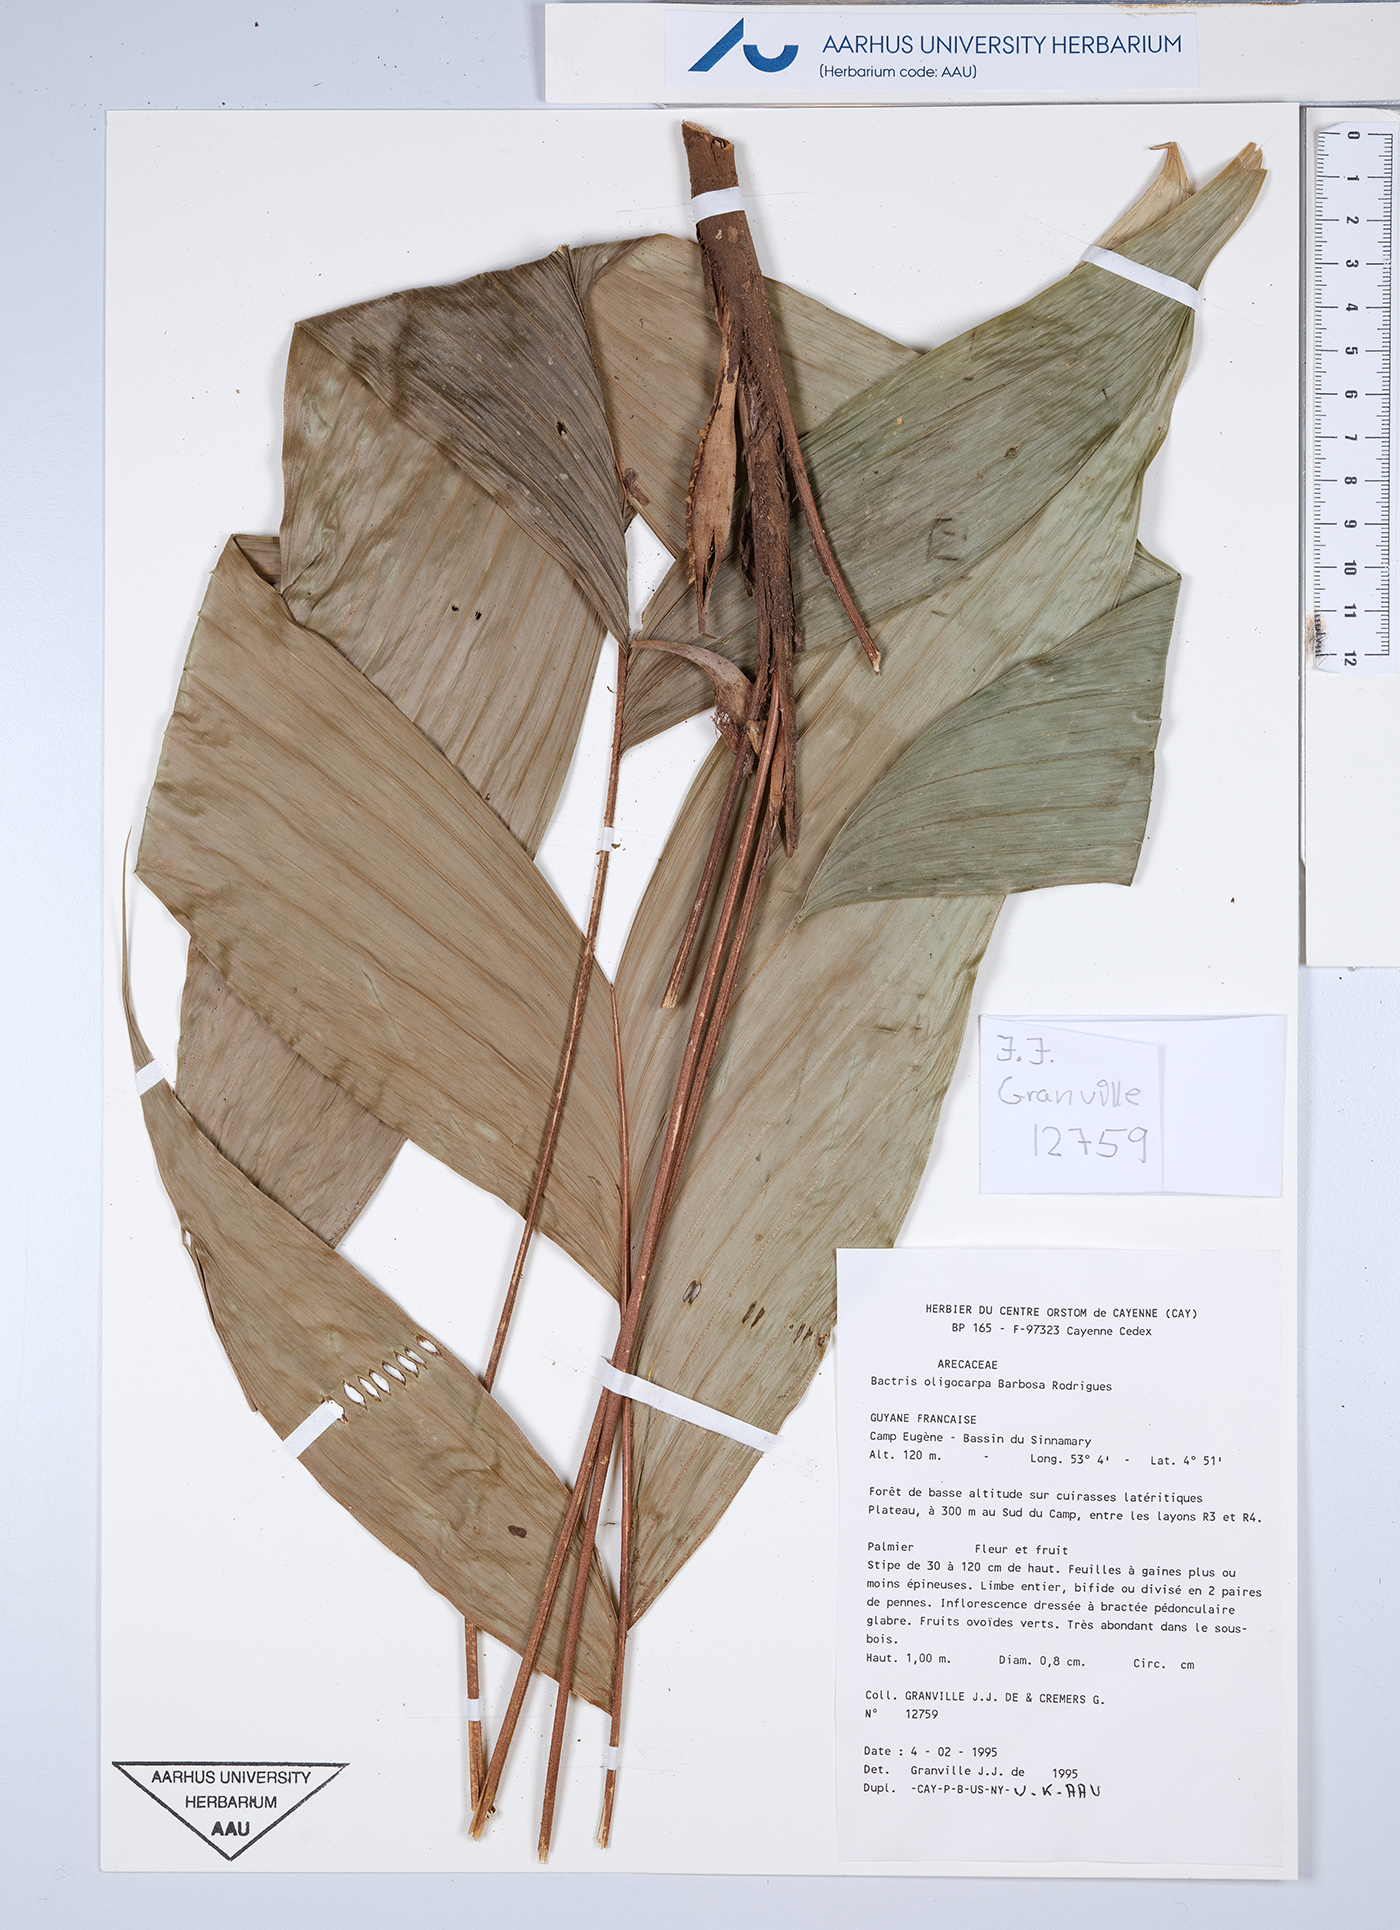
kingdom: Plantae
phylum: Tracheophyta
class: Liliopsida
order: Arecales
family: Arecaceae
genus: Bactris
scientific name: Bactris oligocarpa
